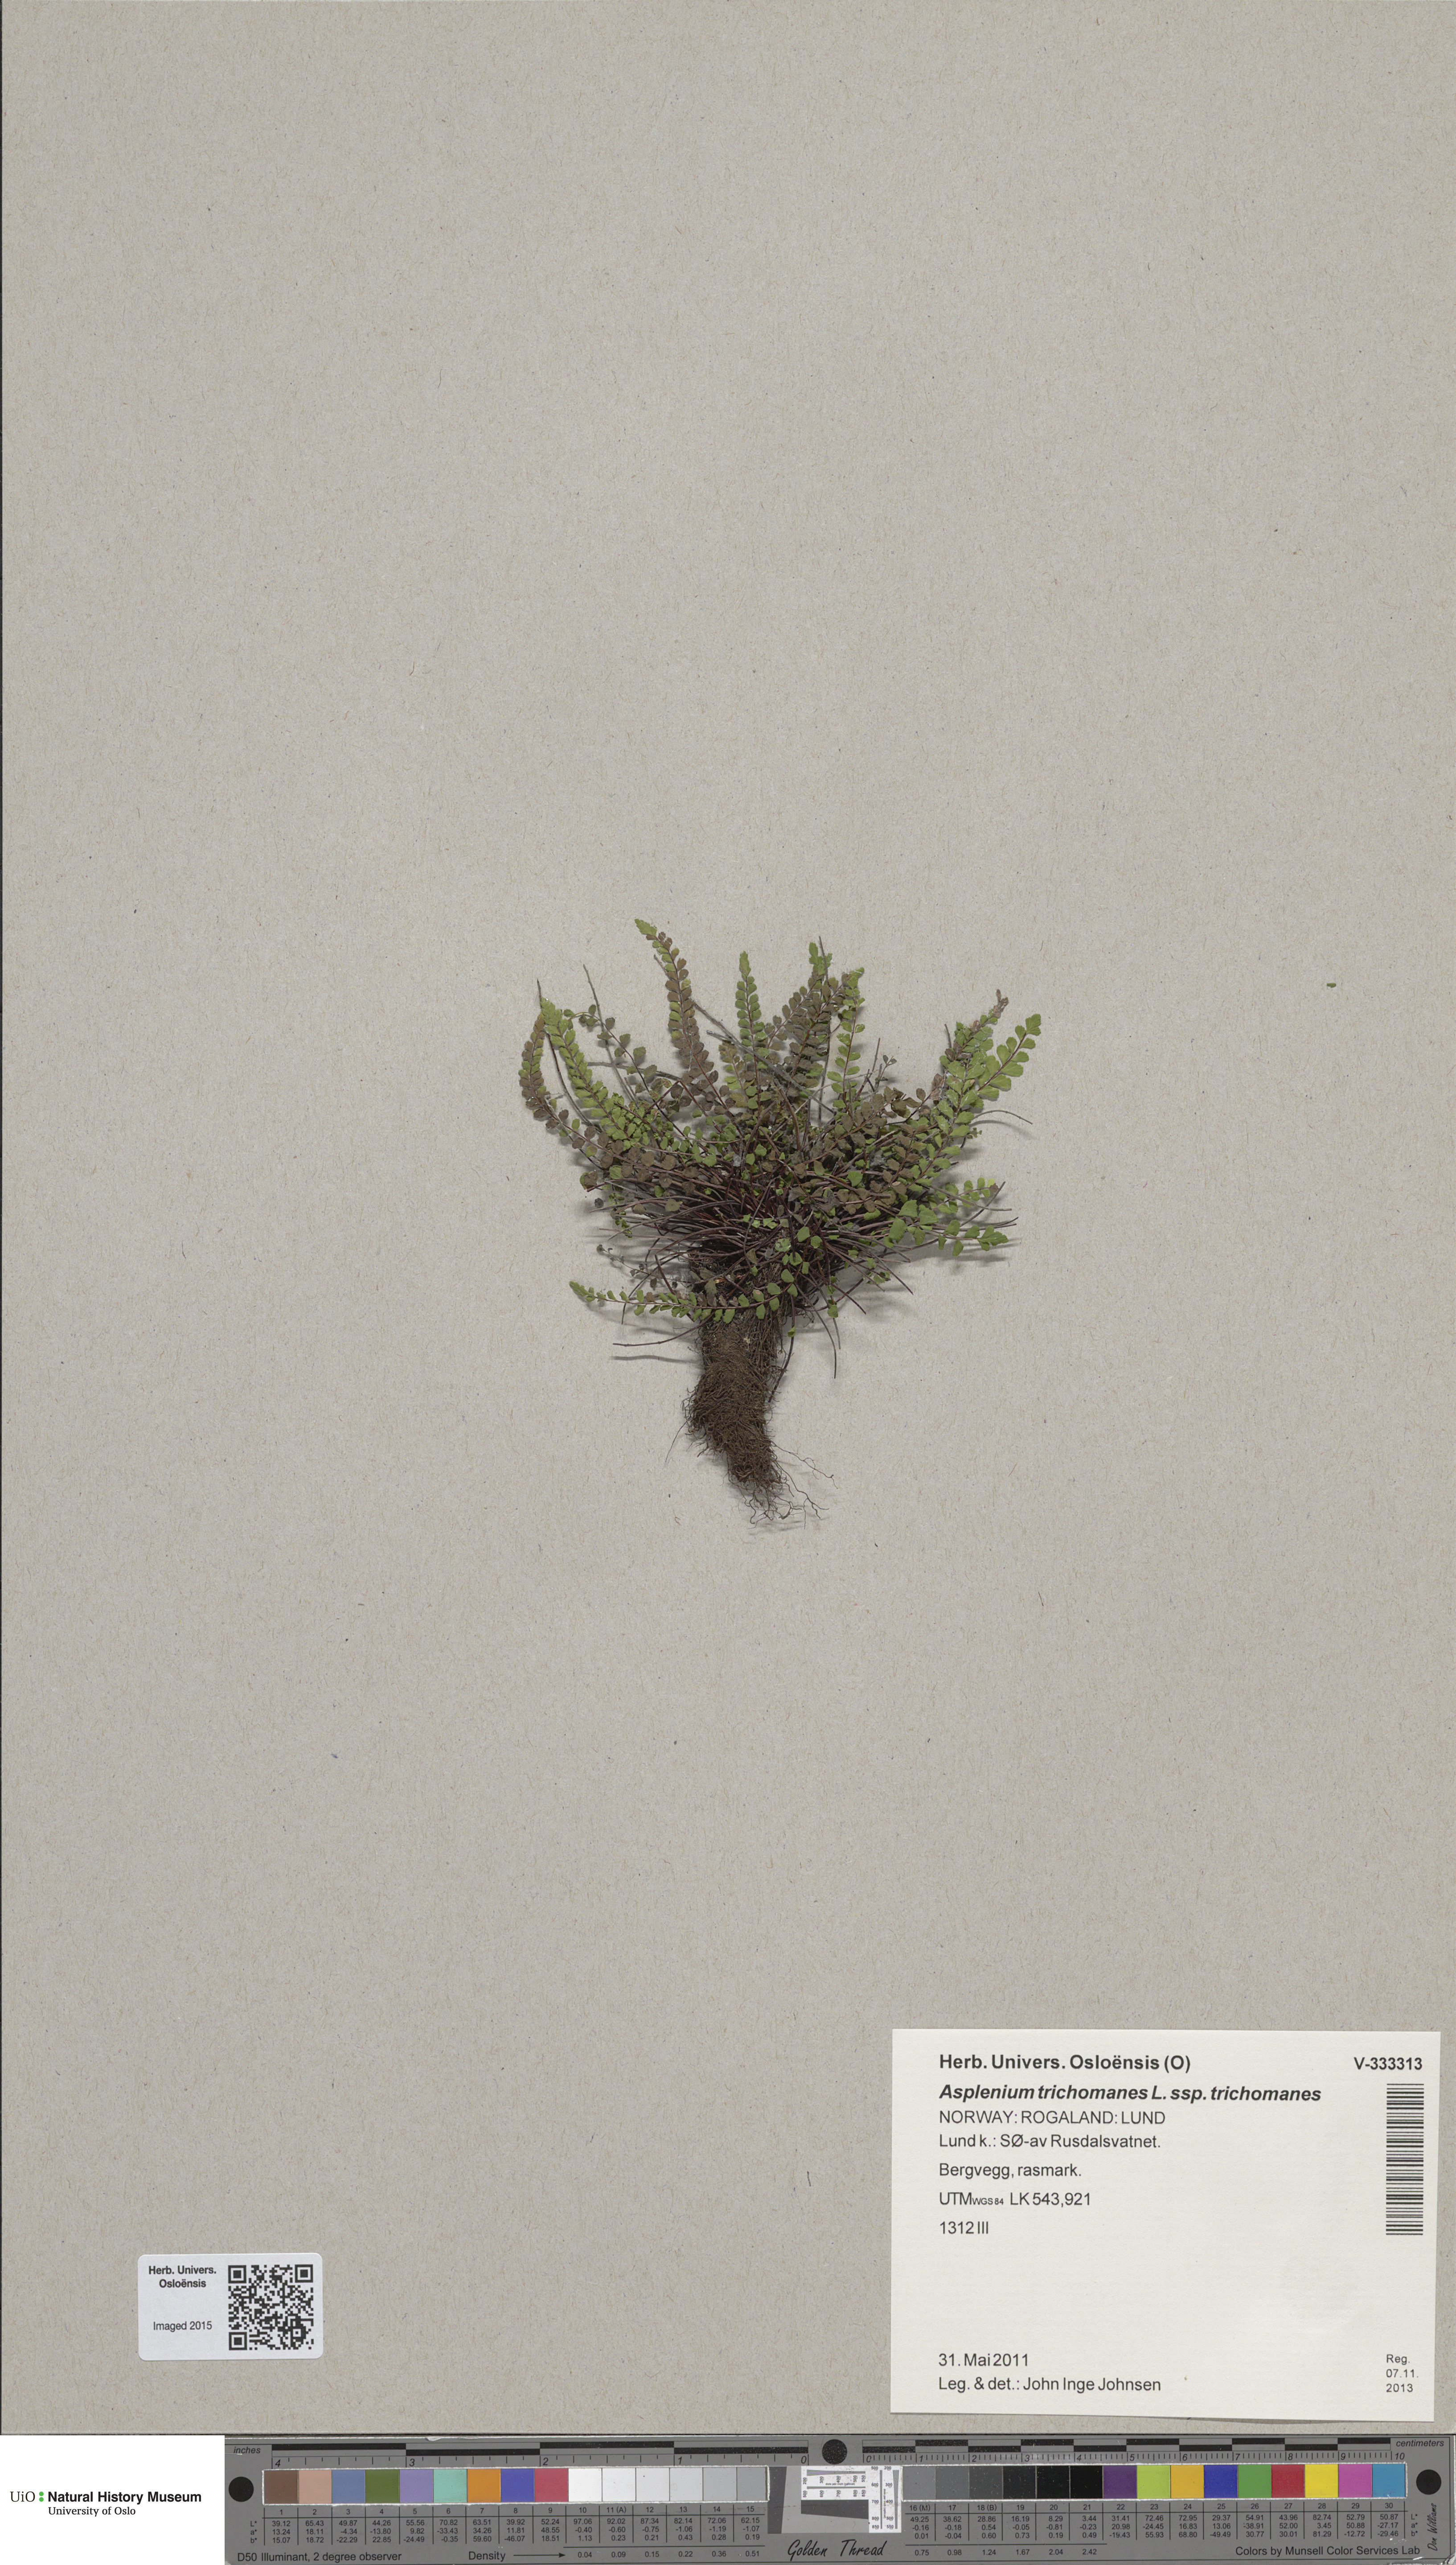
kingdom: Plantae
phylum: Tracheophyta
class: Polypodiopsida
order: Polypodiales
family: Aspleniaceae
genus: Asplenium
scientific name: Asplenium trichomanes
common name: Maidenhair spleenwort
